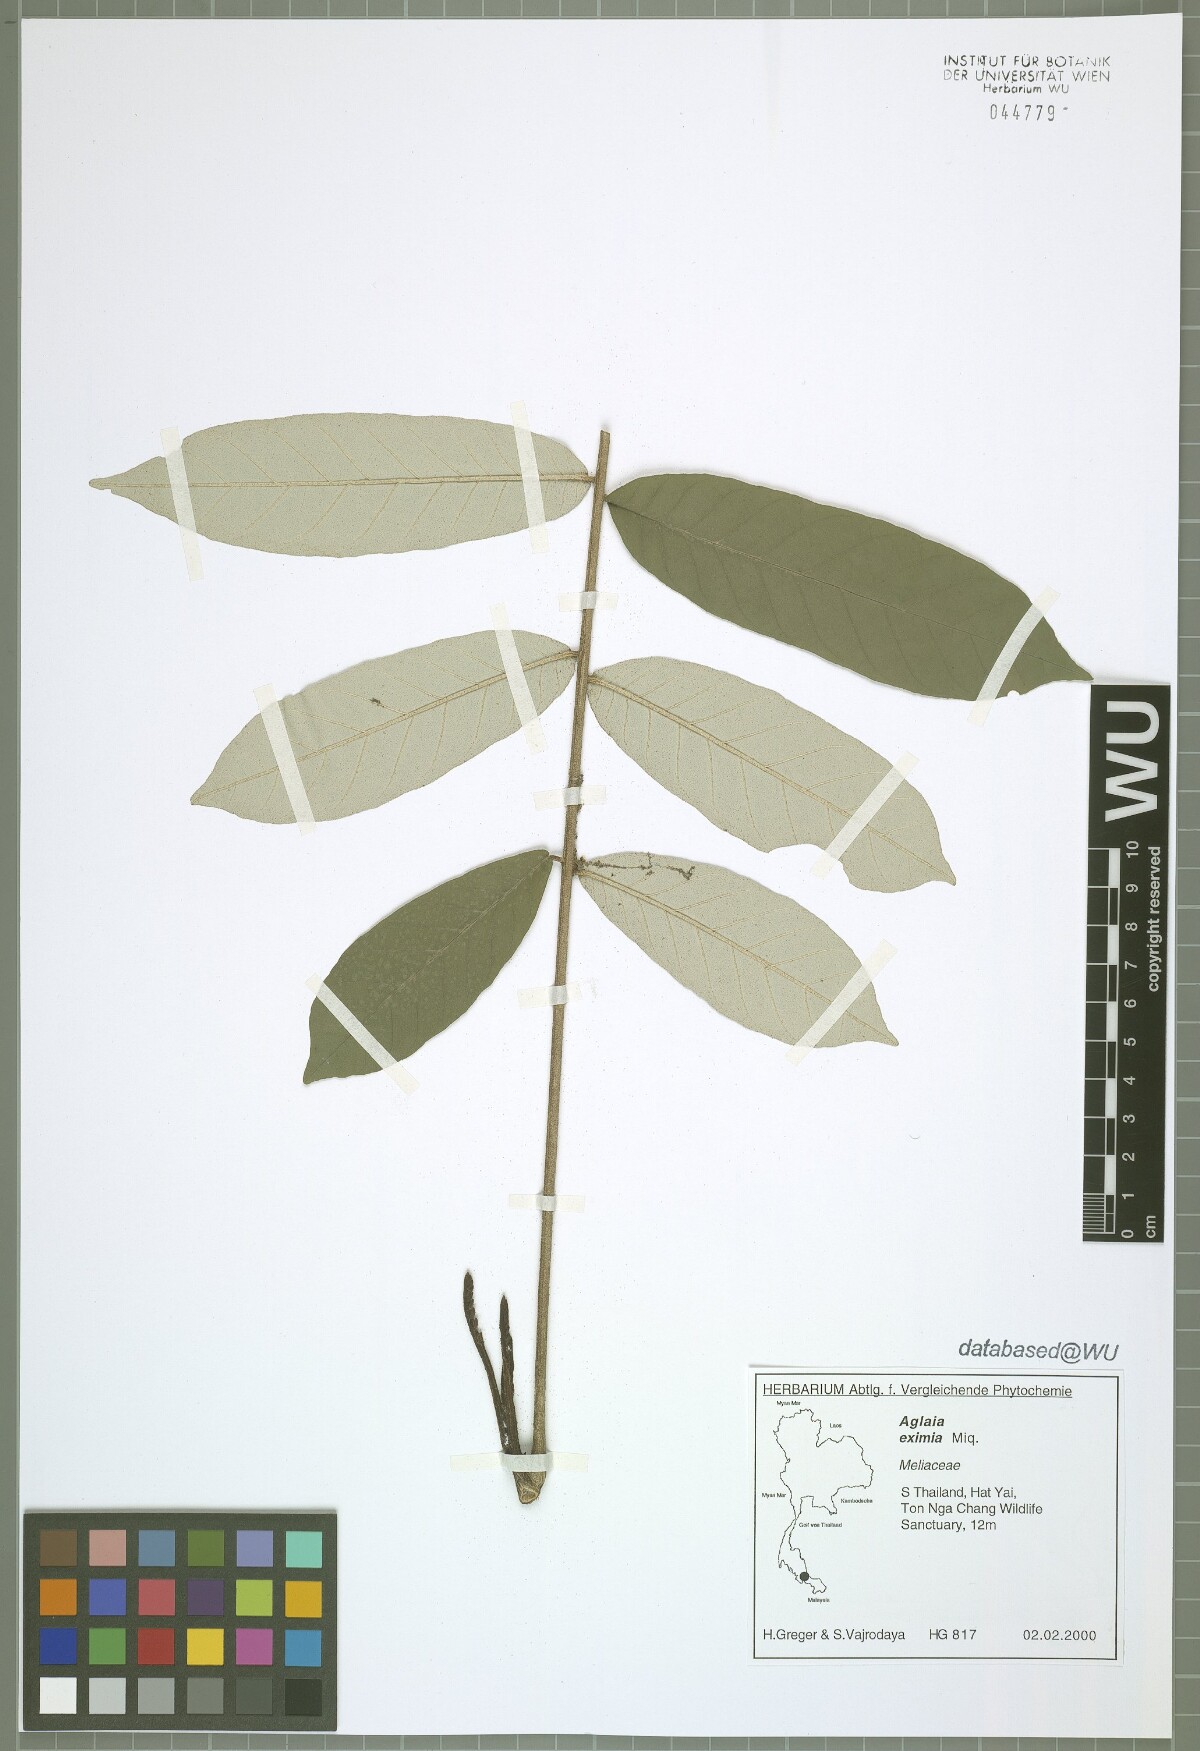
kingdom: Plantae
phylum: Tracheophyta
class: Magnoliopsida
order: Sapindales
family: Meliaceae
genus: Aglaia
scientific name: Aglaia eximia
